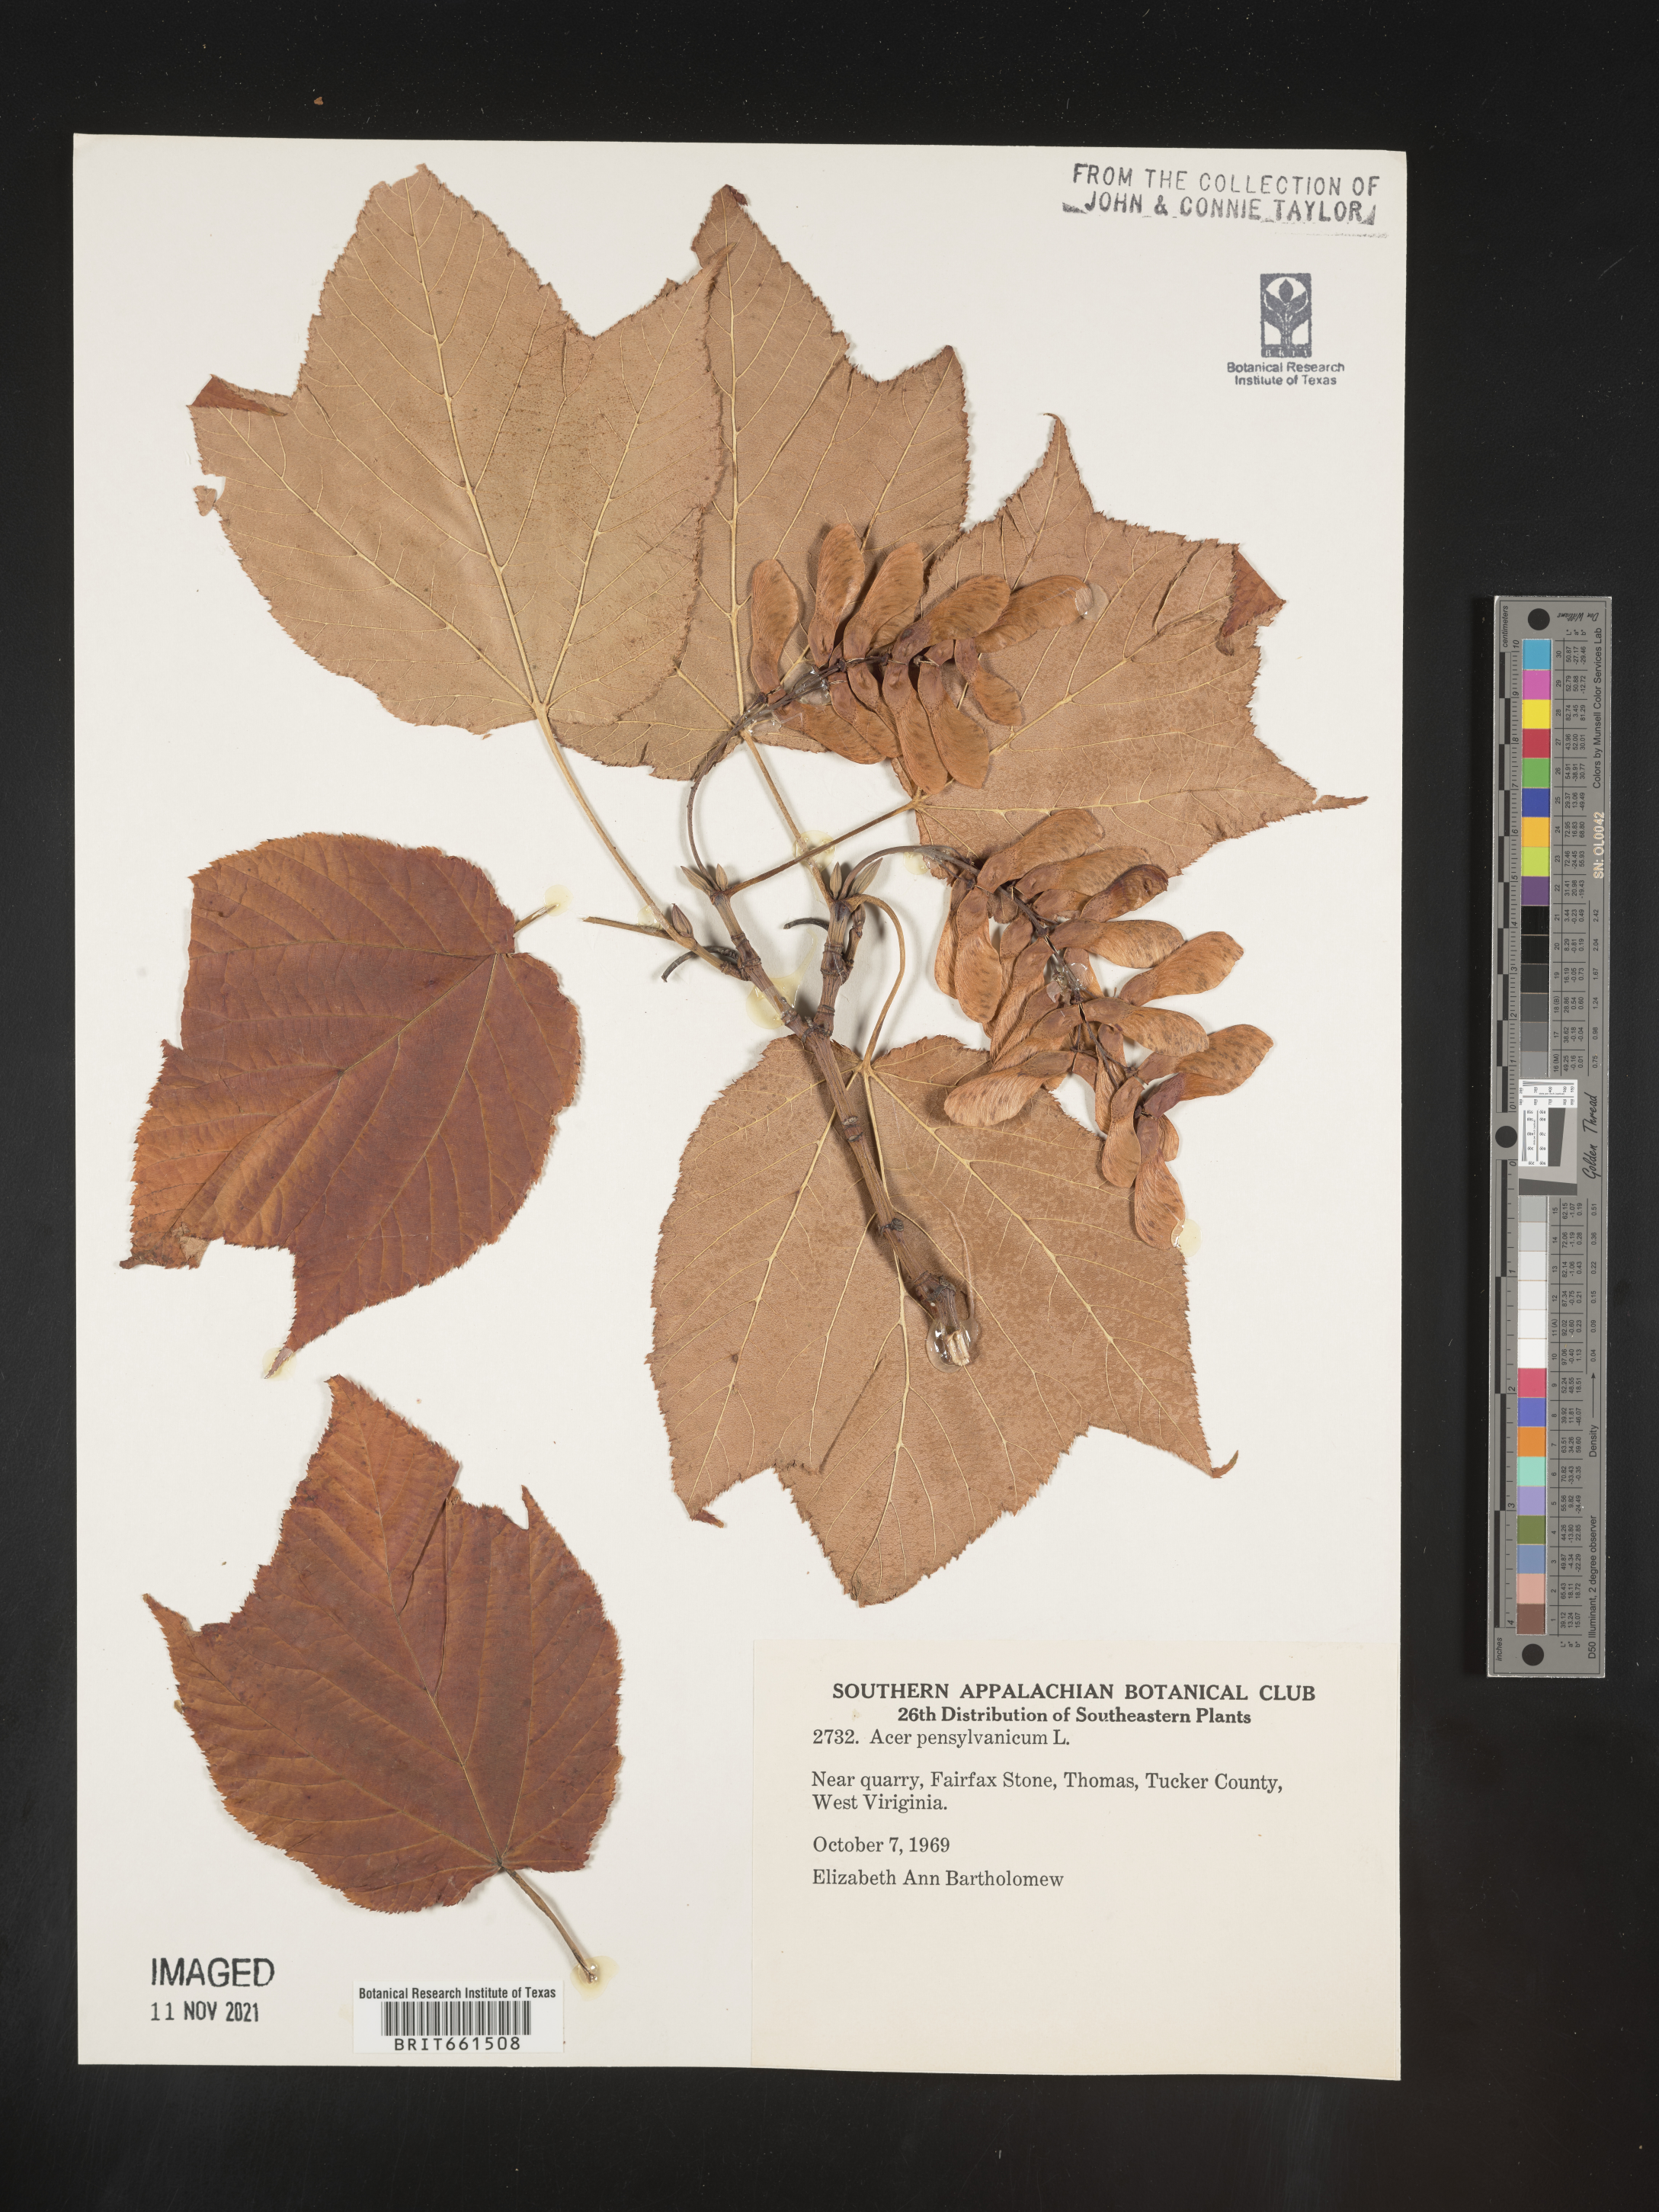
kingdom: Plantae
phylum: Tracheophyta
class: Magnoliopsida
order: Sapindales
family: Sapindaceae
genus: Acer
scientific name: Acer pensylvanicum
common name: Moosewood
